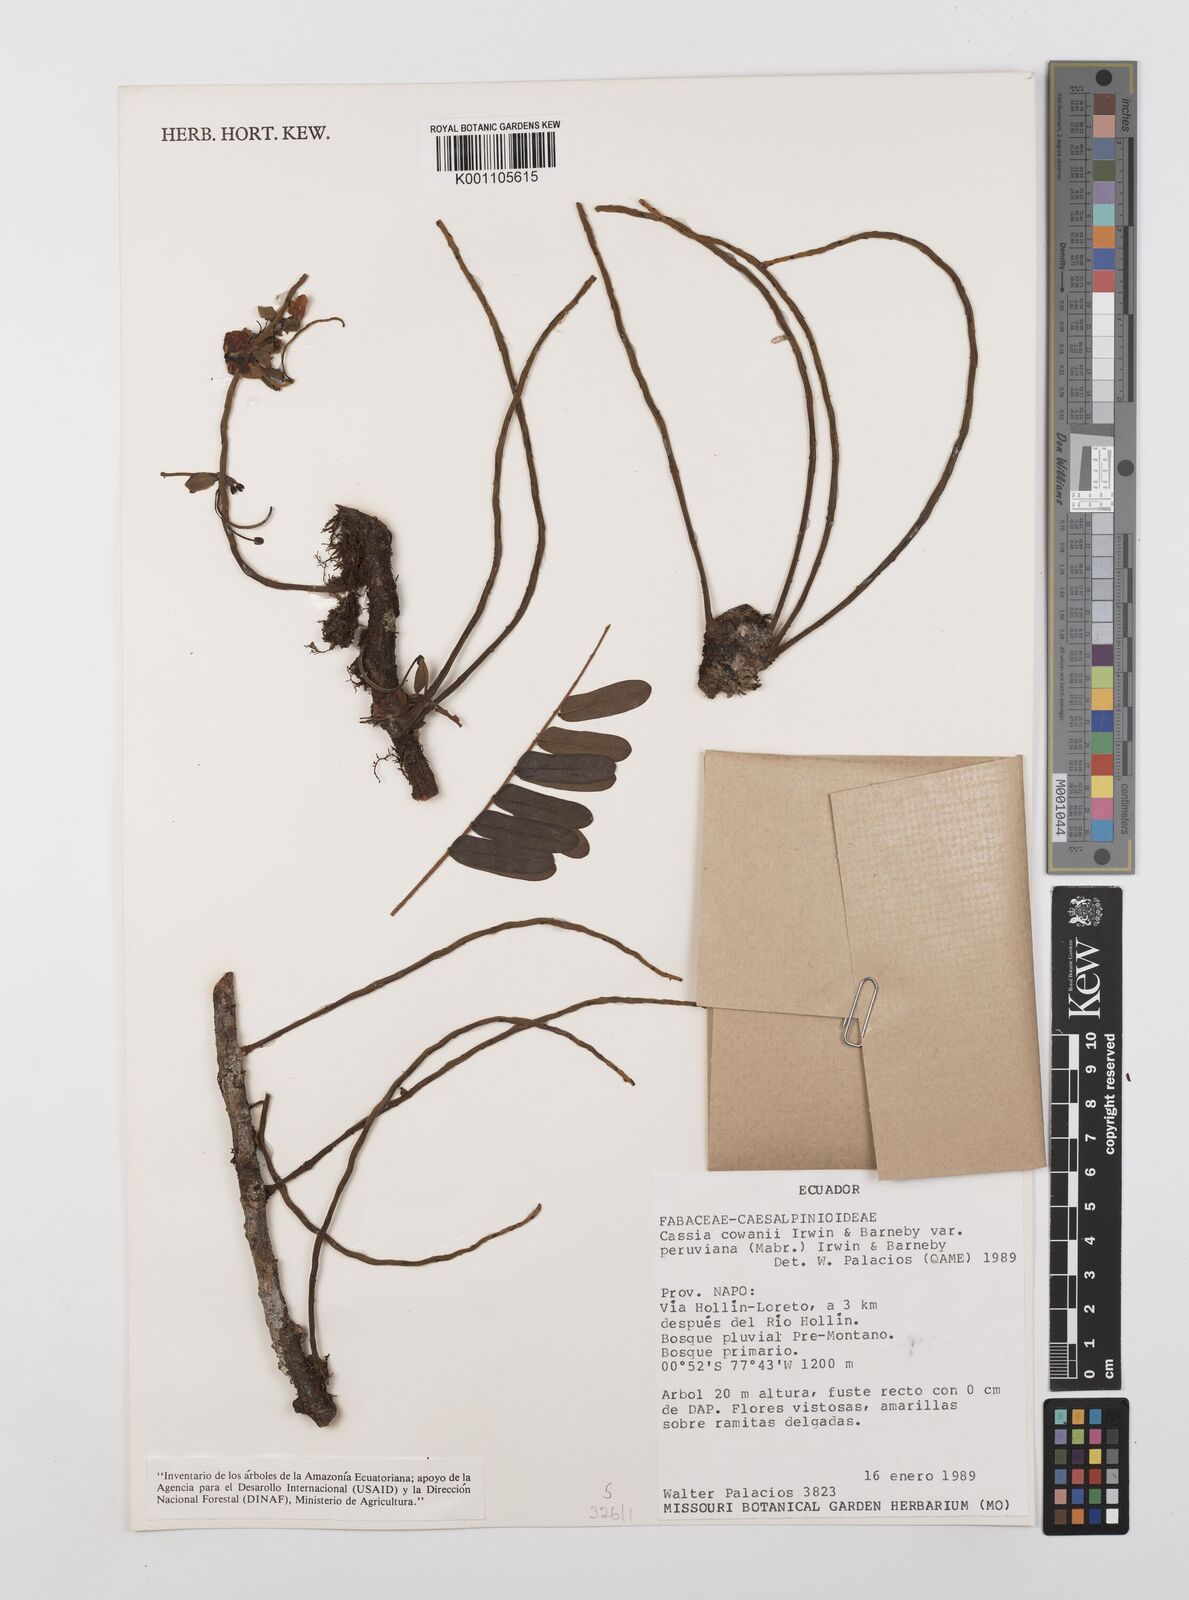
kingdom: Plantae
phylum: Tracheophyta
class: Magnoliopsida
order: Fabales
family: Fabaceae
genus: Cassia
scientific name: Cassia cowanii
